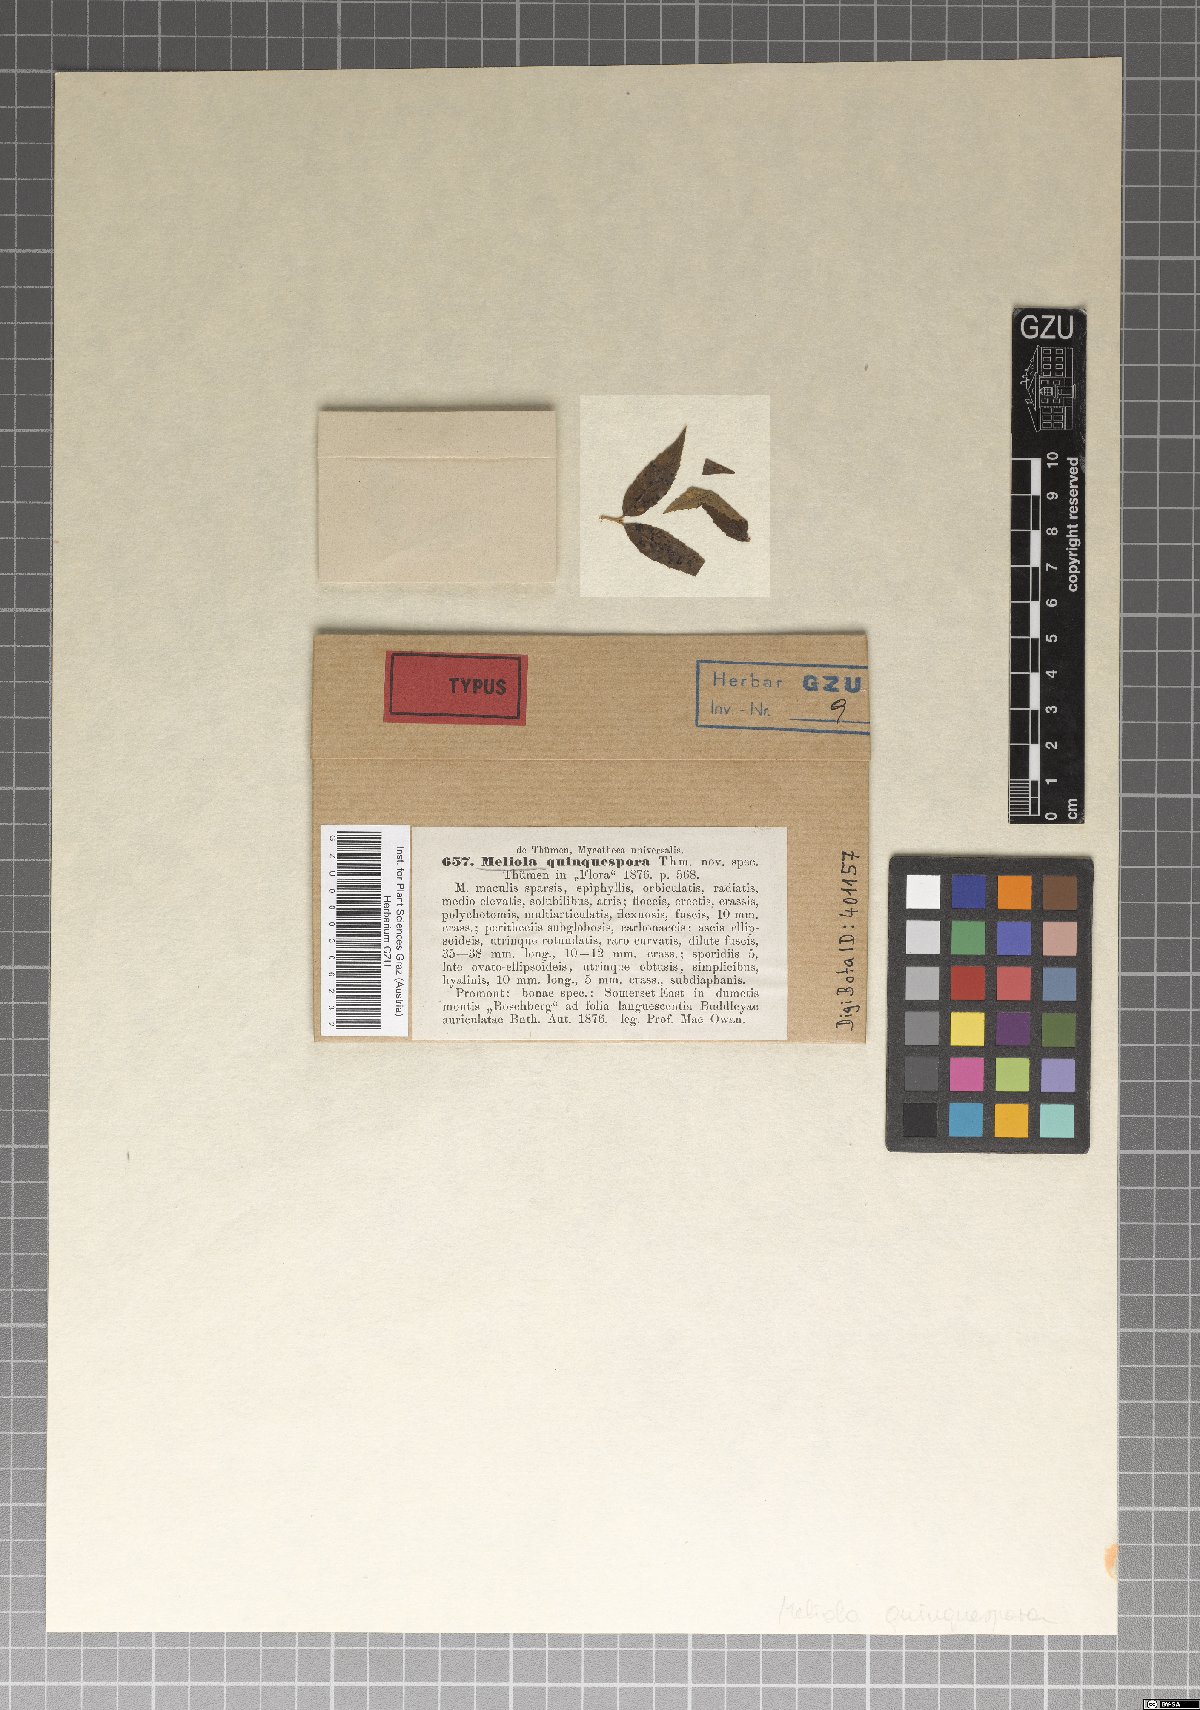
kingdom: Fungi
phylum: Ascomycota
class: Sordariomycetes
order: Meliolales
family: Meliolaceae
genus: Meliola
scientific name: Meliola
